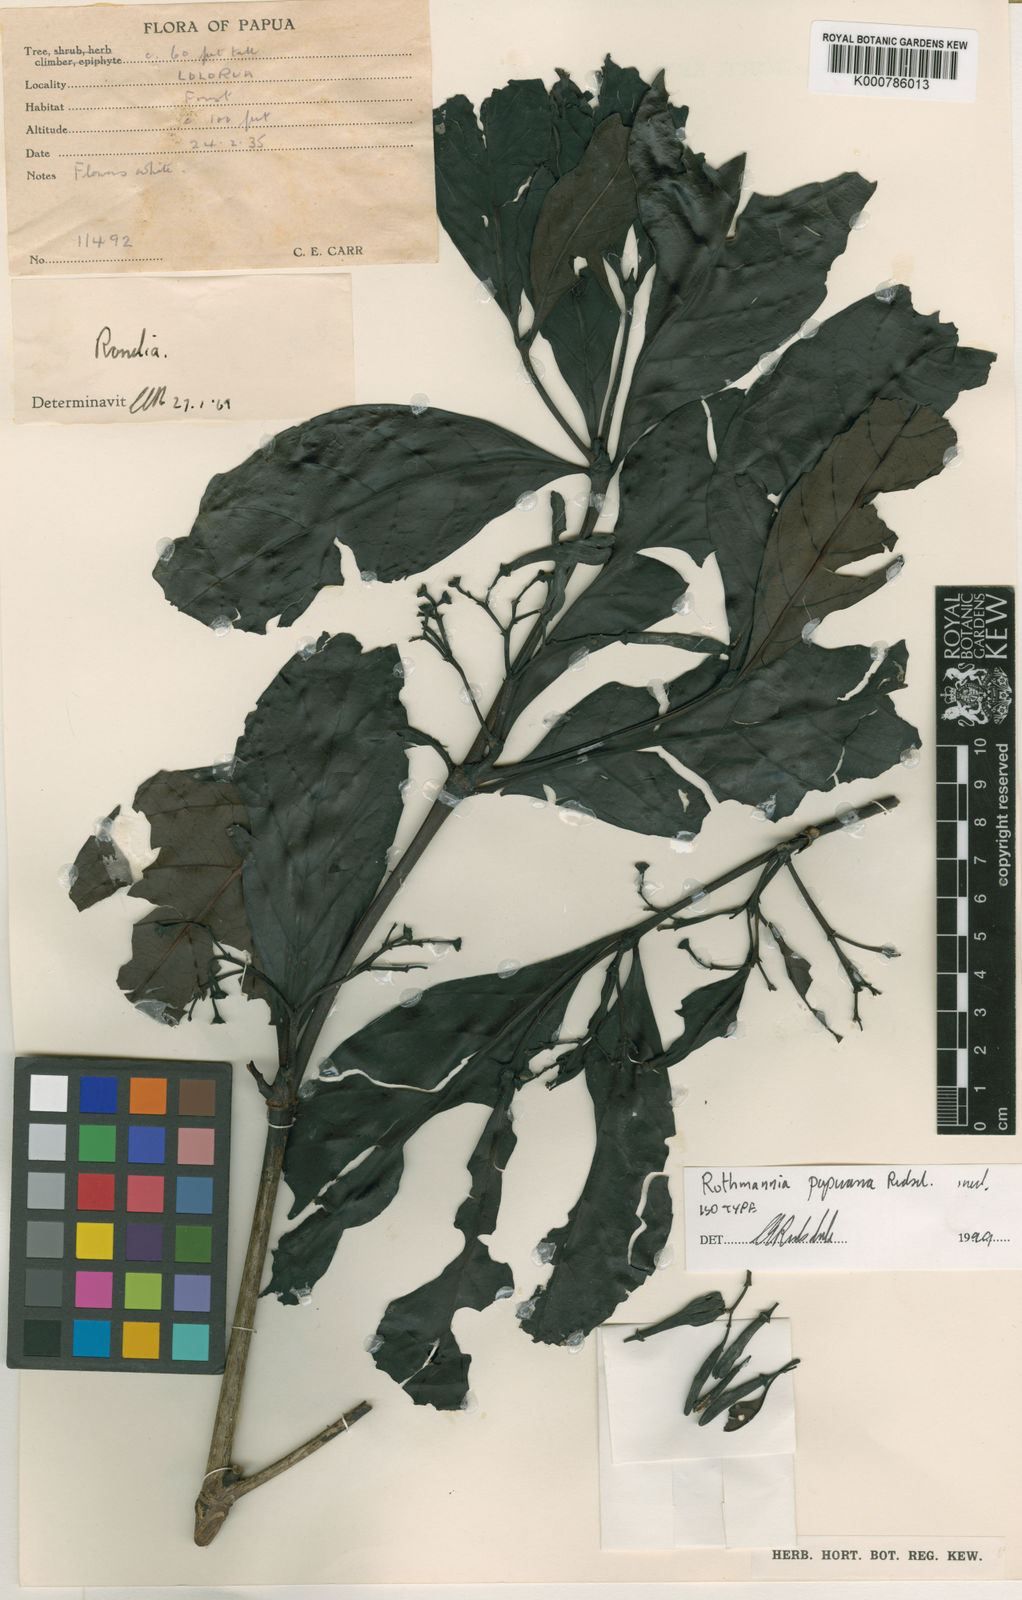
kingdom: Plantae
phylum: Tracheophyta
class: Magnoliopsida
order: Gentianales
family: Rubiaceae
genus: Ridsdalea
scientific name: Ridsdalea papuana
